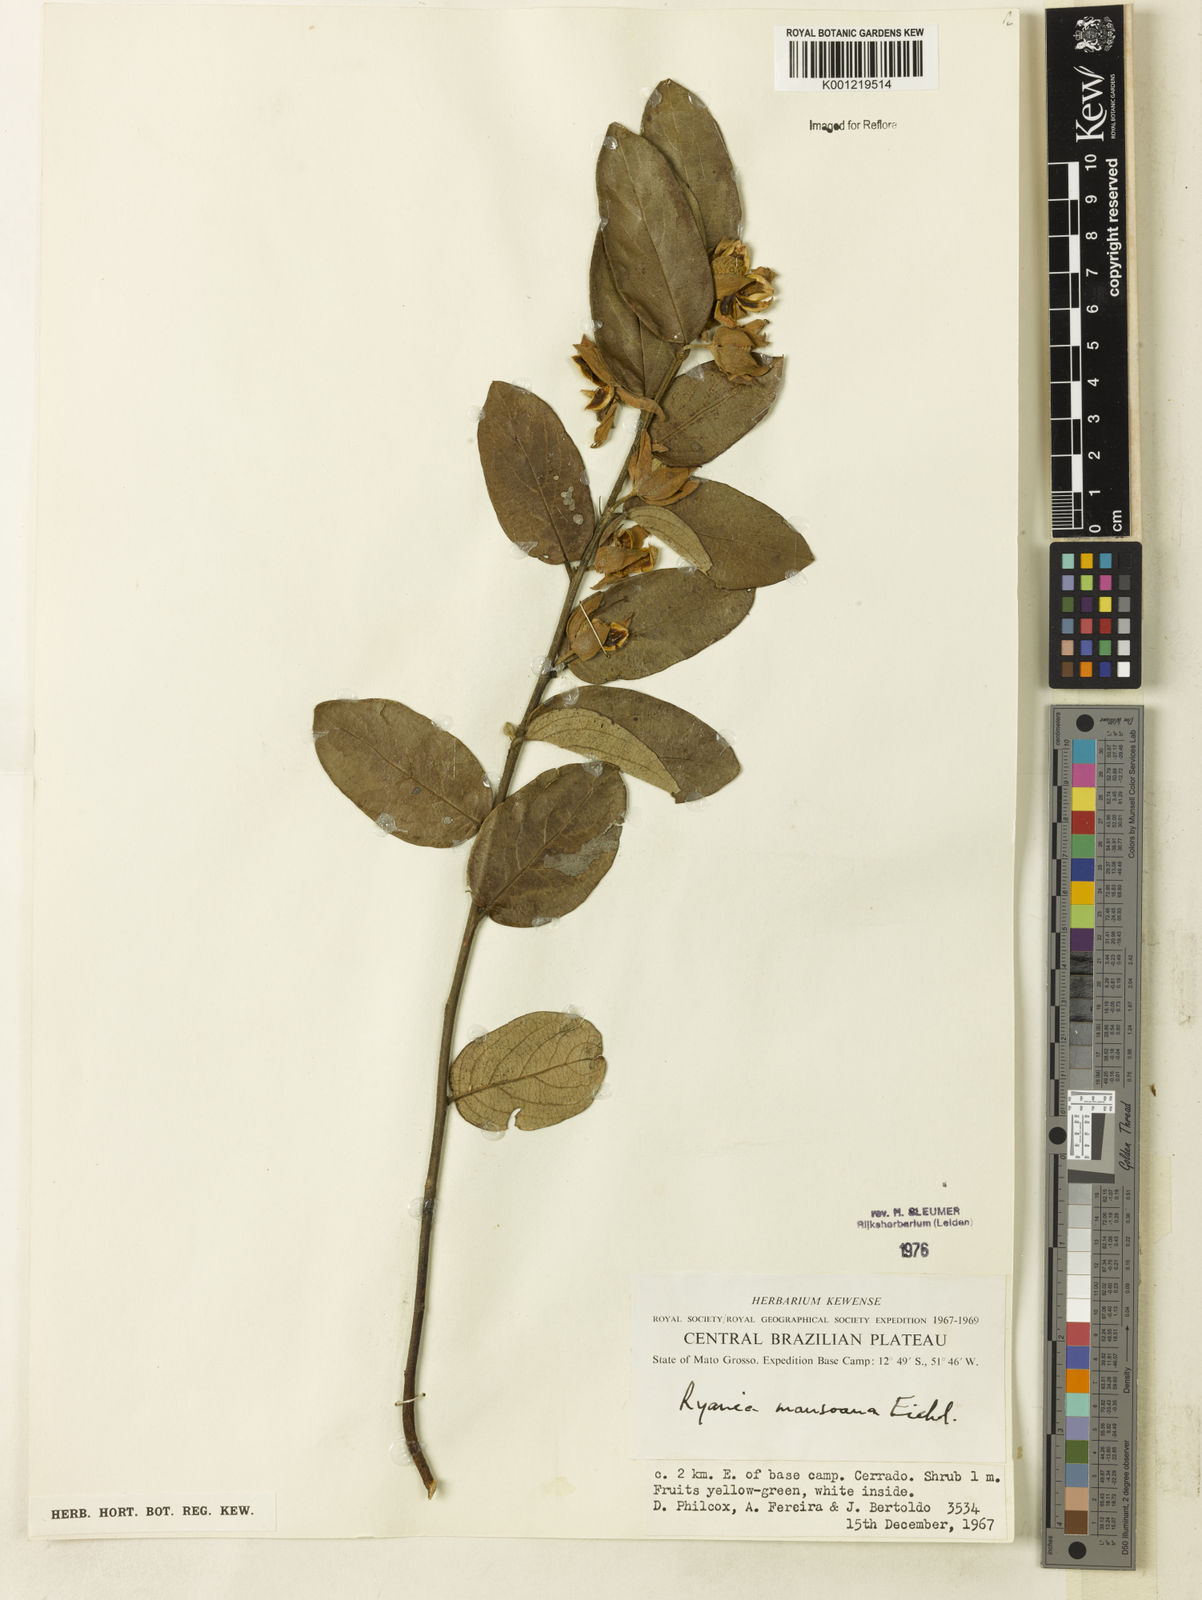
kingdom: Plantae
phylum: Tracheophyta
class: Magnoliopsida
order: Malpighiales
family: Salicaceae
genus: Ryania
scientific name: Ryania mansoana
